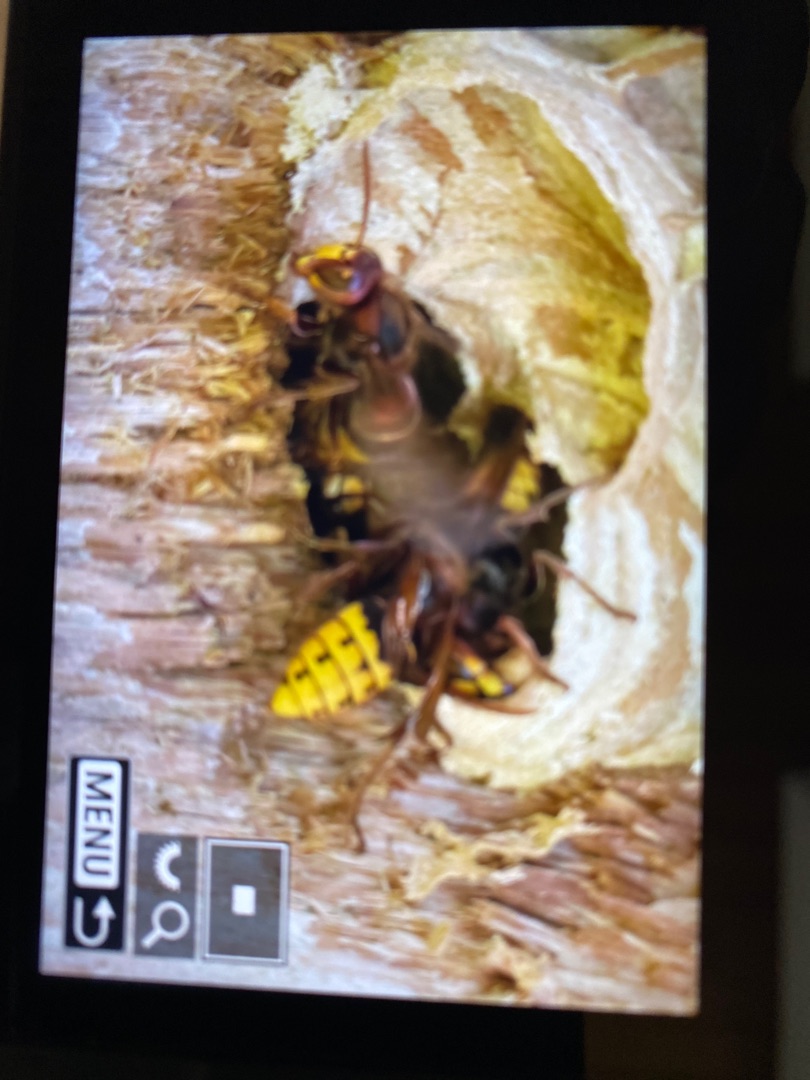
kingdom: Animalia
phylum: Arthropoda
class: Insecta
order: Hymenoptera
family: Vespidae
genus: Vespa
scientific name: Vespa crabro
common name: Stor gedehams
